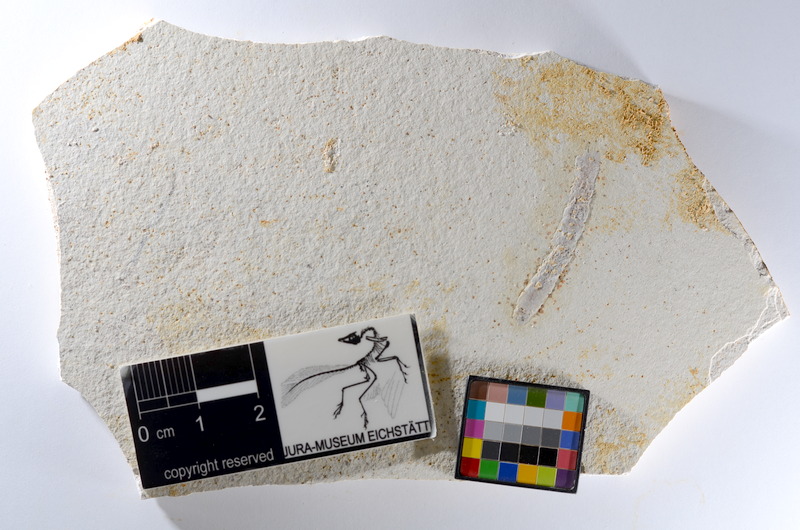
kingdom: Animalia
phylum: Chordata
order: Salmoniformes
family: Orthogonikleithridae
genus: Orthogonikleithrus
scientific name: Orthogonikleithrus hoelli
